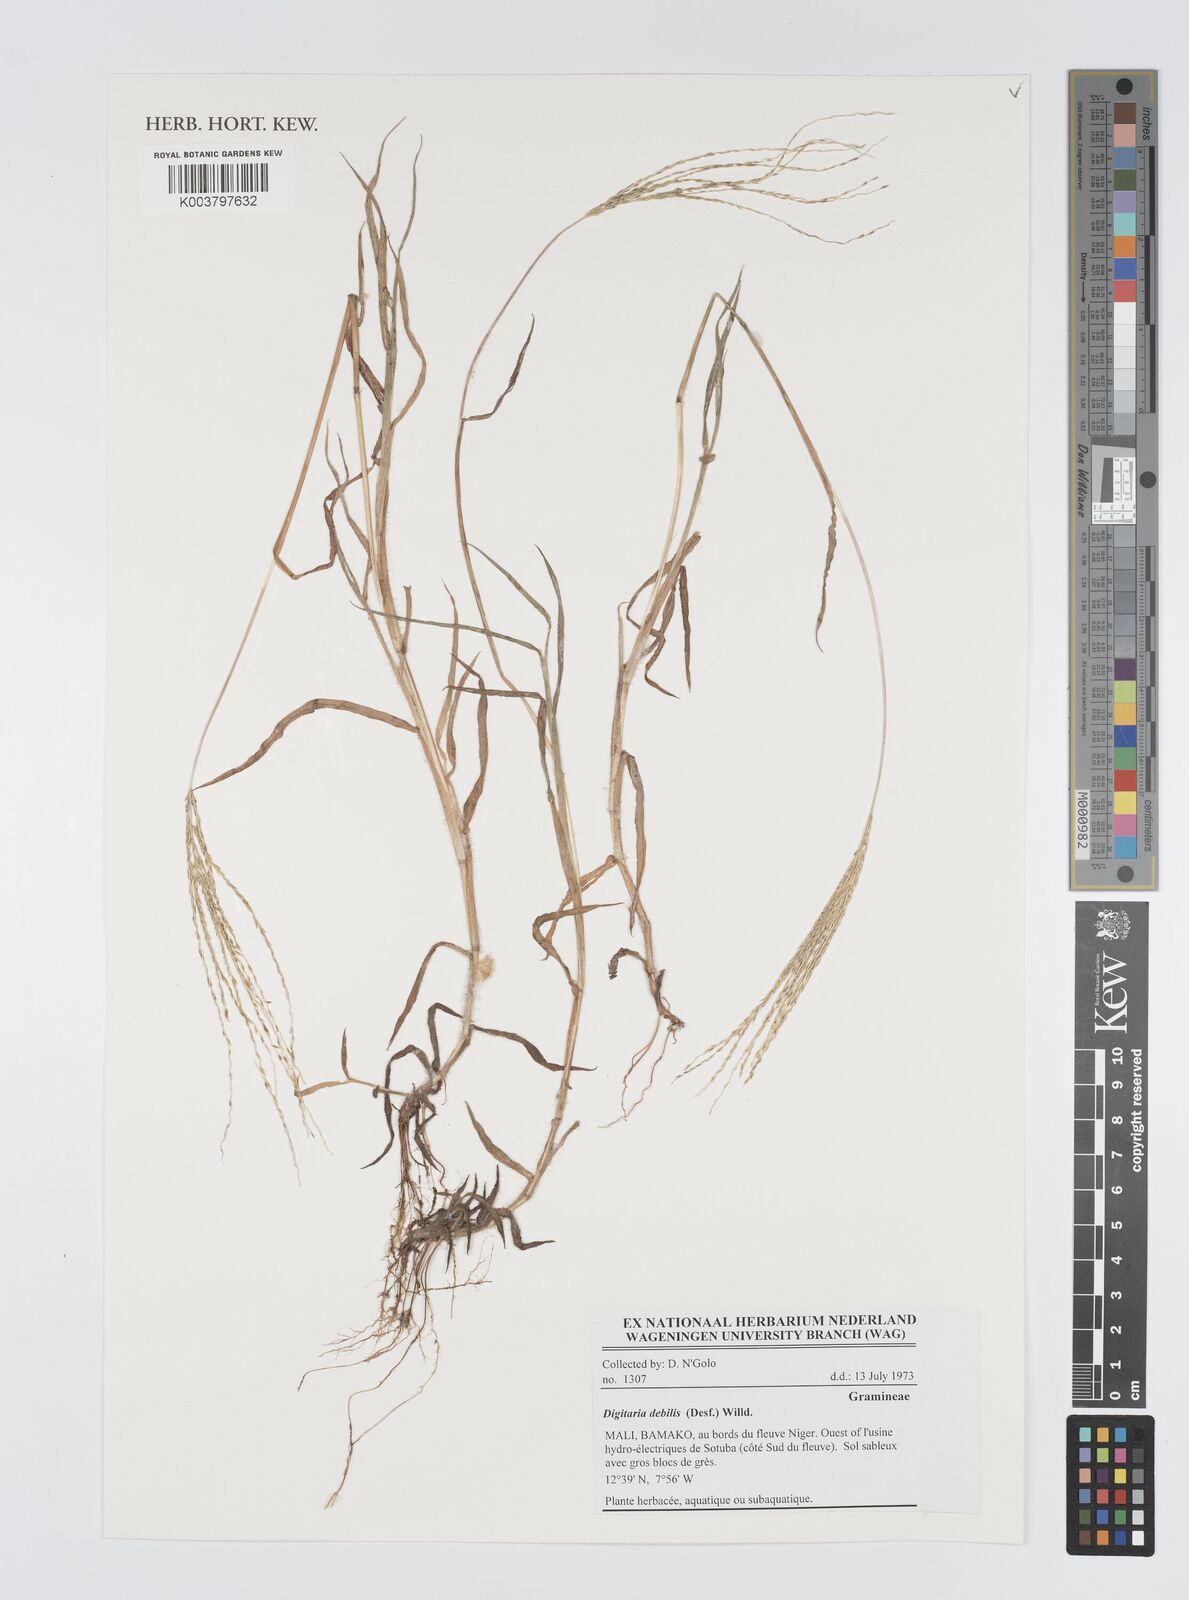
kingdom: Plantae
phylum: Tracheophyta
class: Liliopsida
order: Poales
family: Poaceae
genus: Digitaria
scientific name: Digitaria debilis
